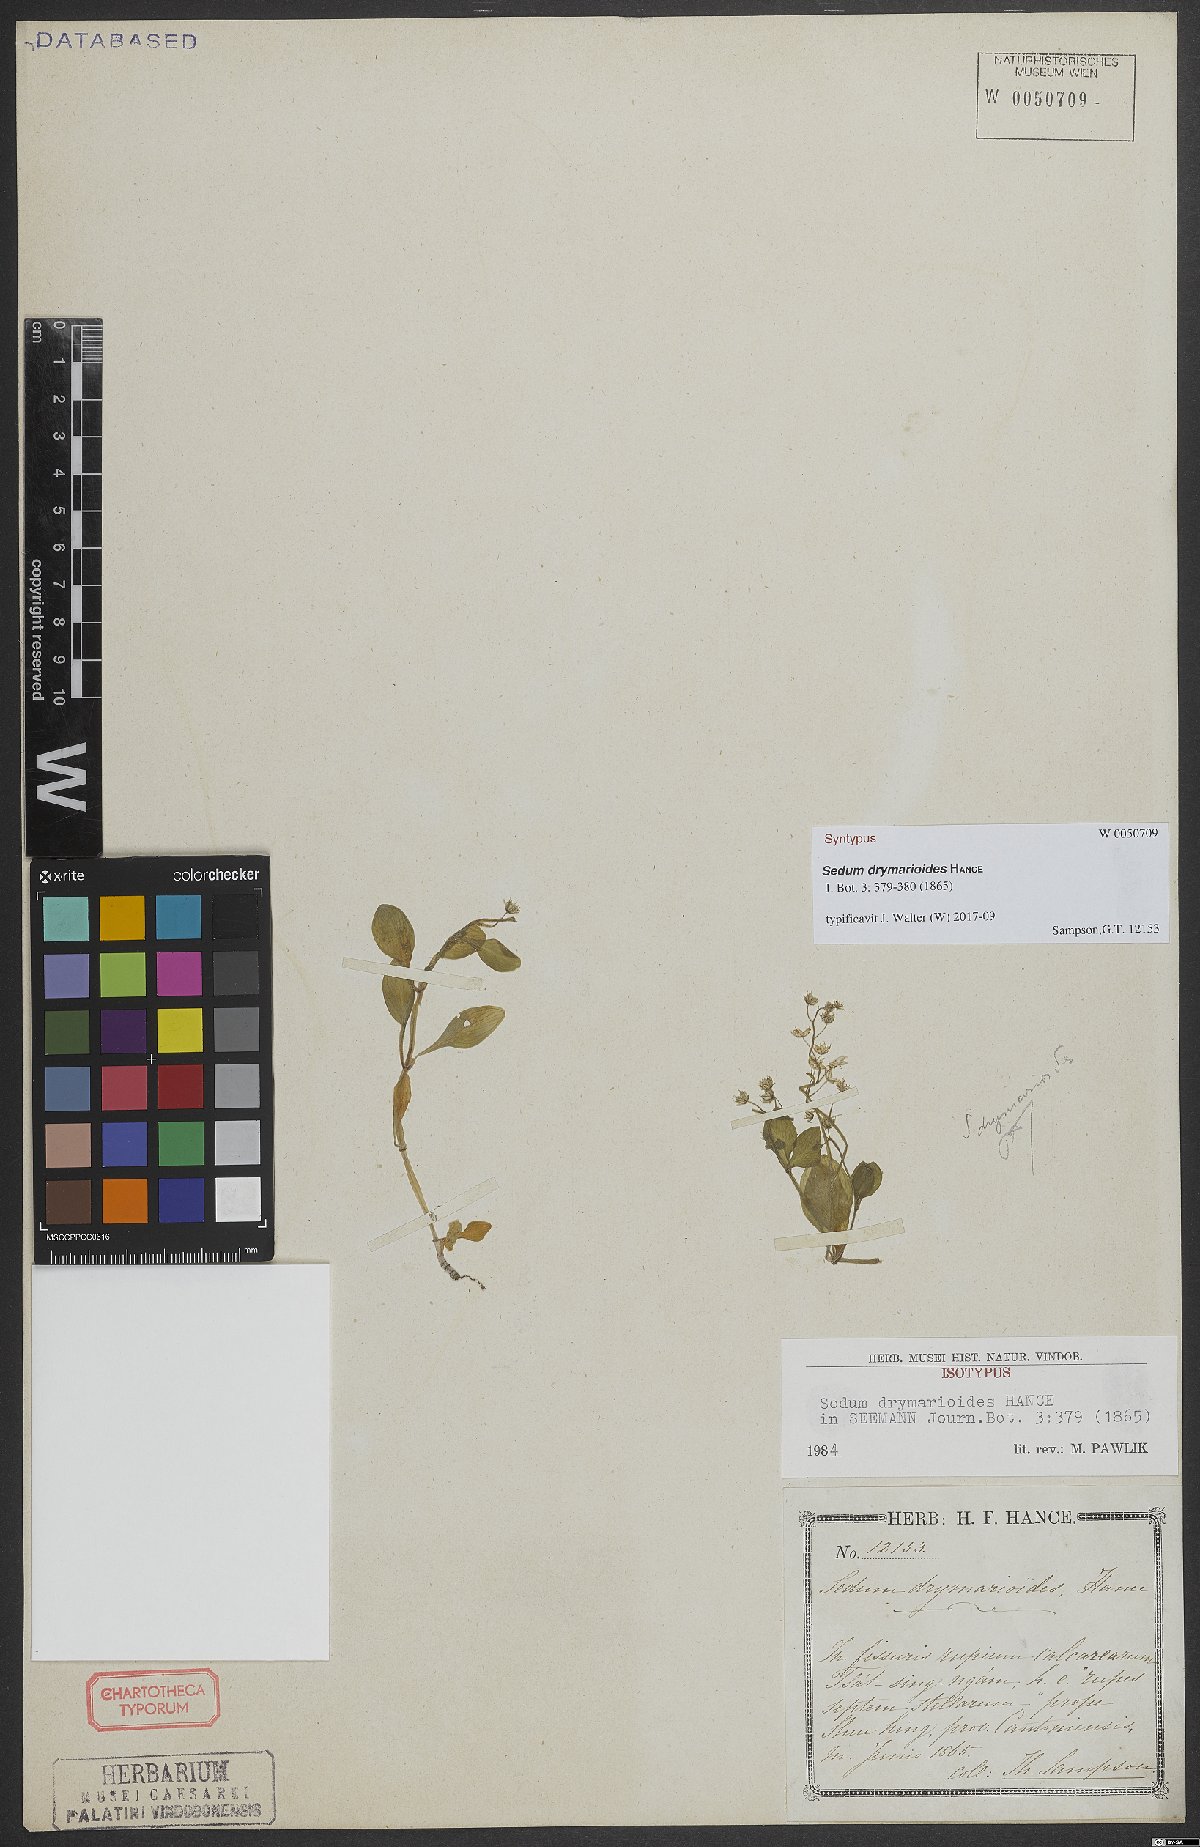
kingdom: Plantae
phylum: Tracheophyta
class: Magnoliopsida
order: Saxifragales
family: Crassulaceae
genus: Sedum
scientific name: Sedum drymarioides
